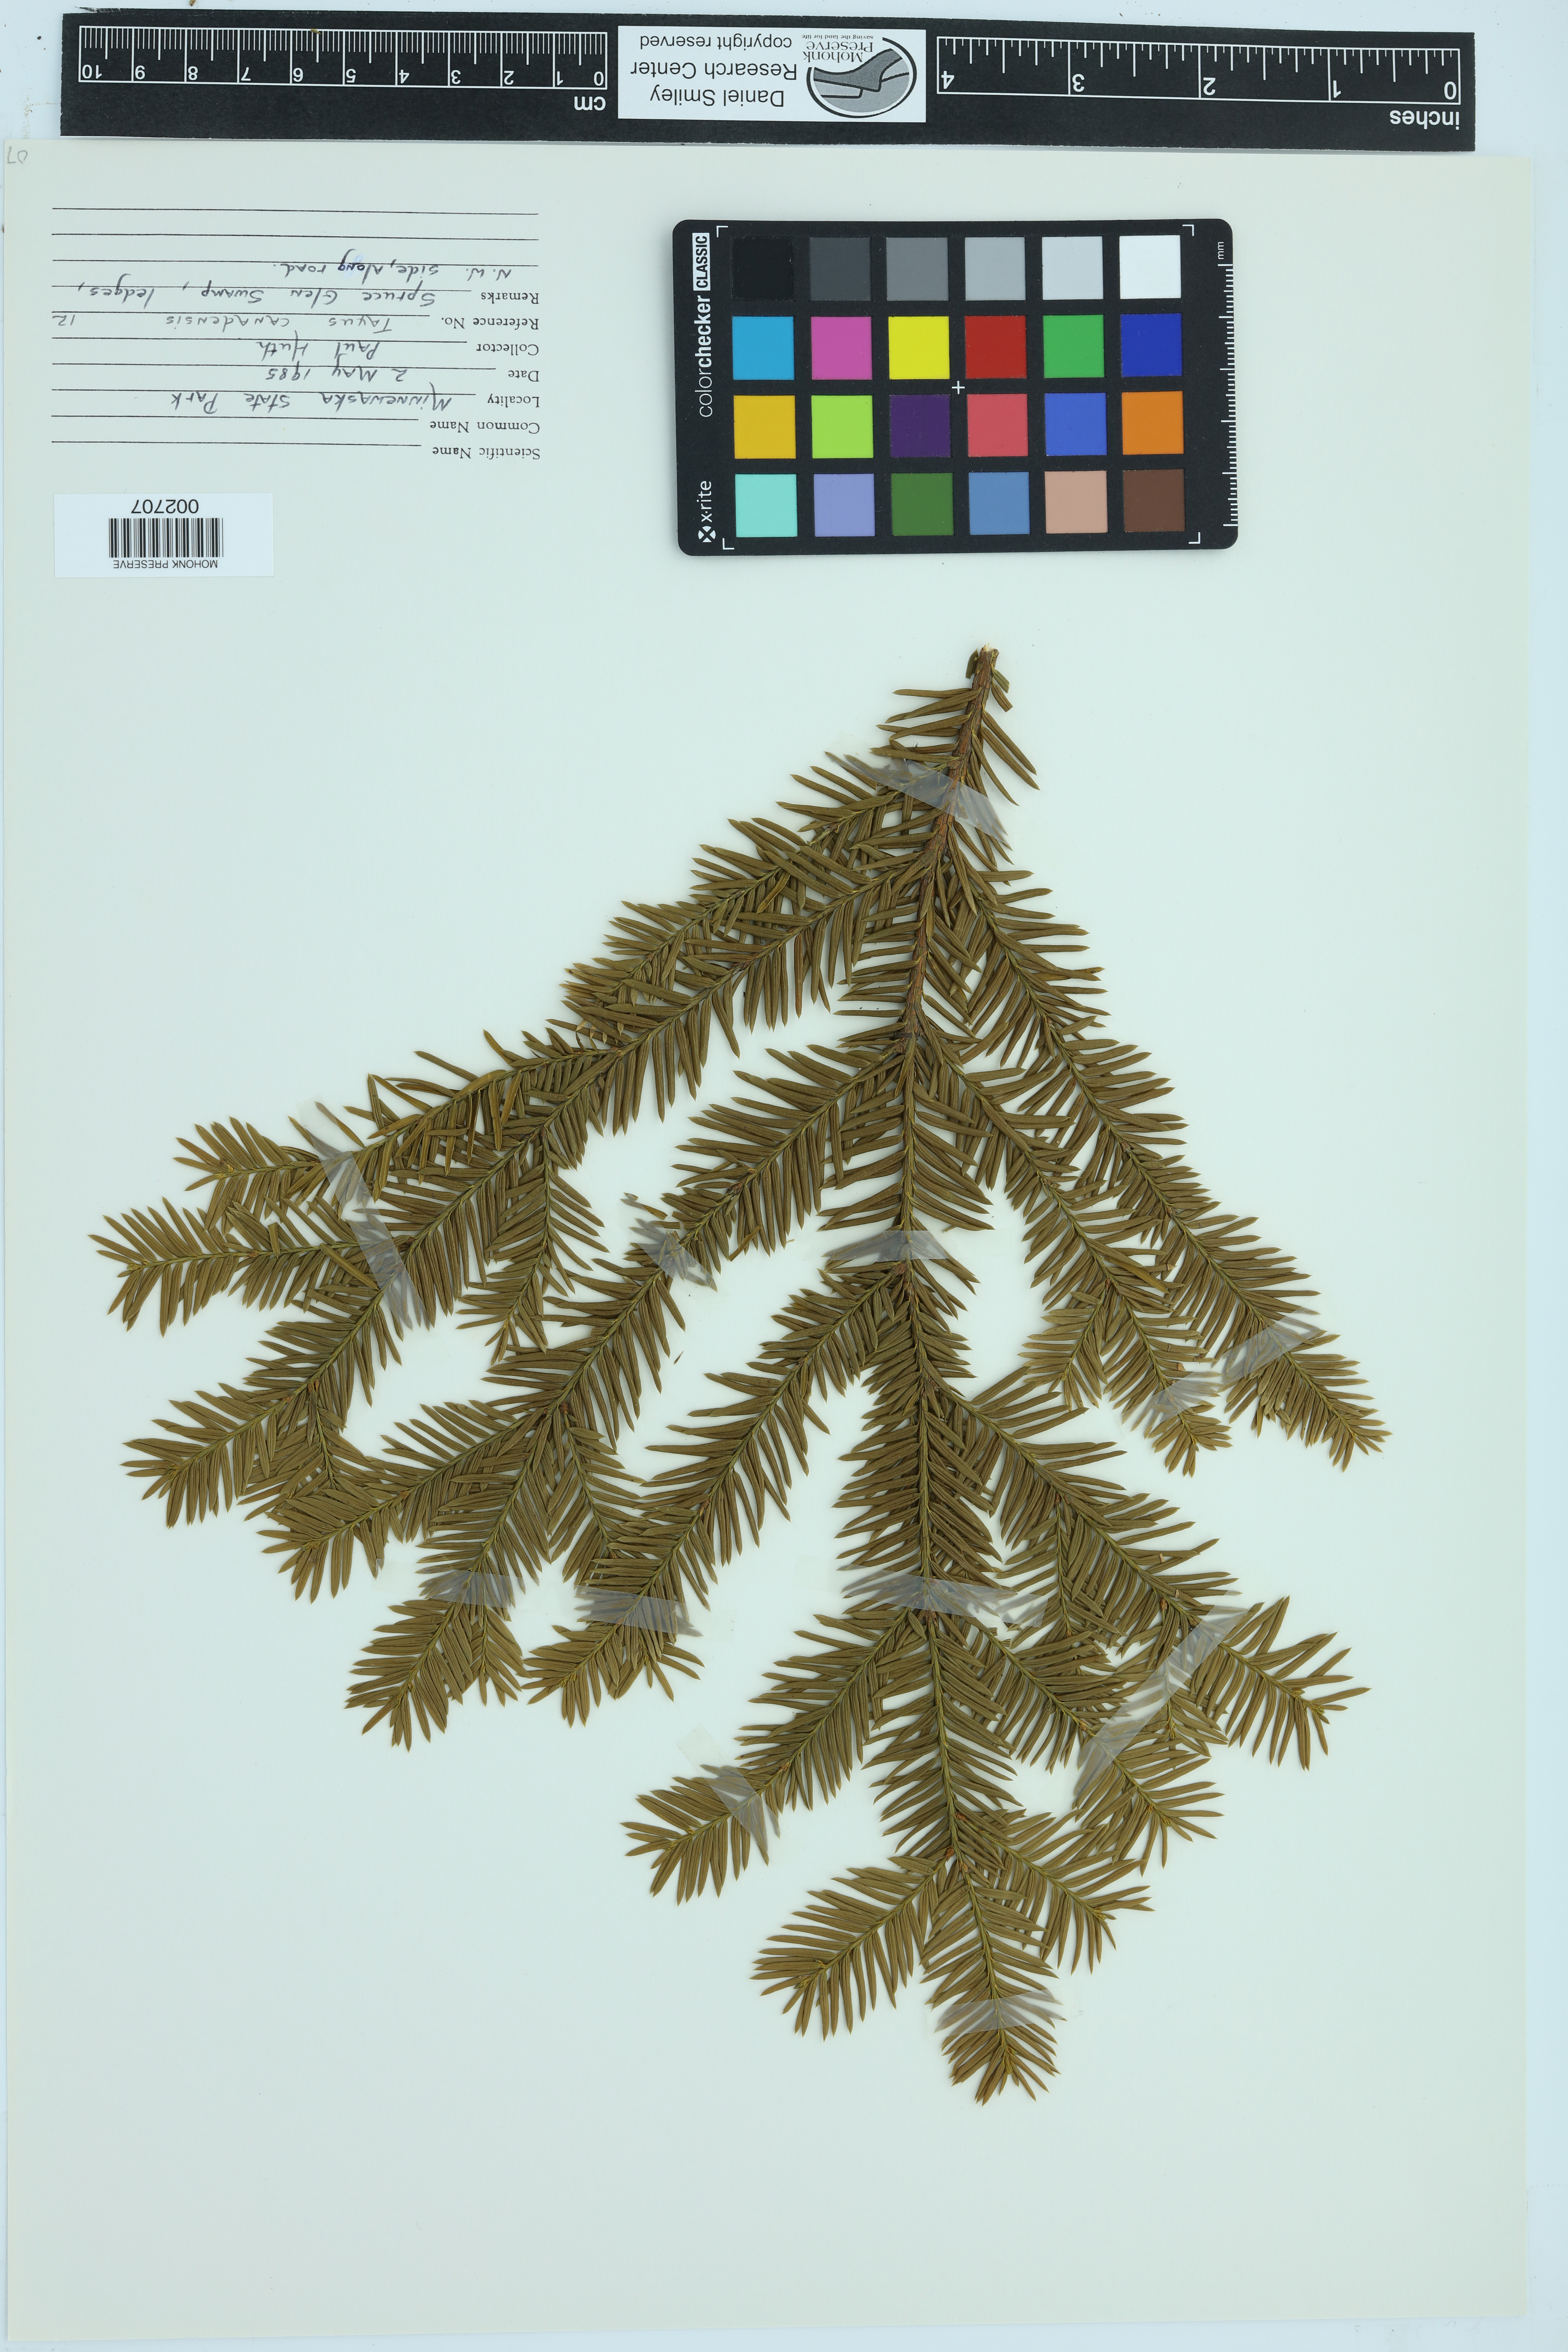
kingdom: Plantae
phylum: Tracheophyta
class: Pinopsida
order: Pinales
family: Taxaceae
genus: Taxus
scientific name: Taxus canadensis
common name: American yew
